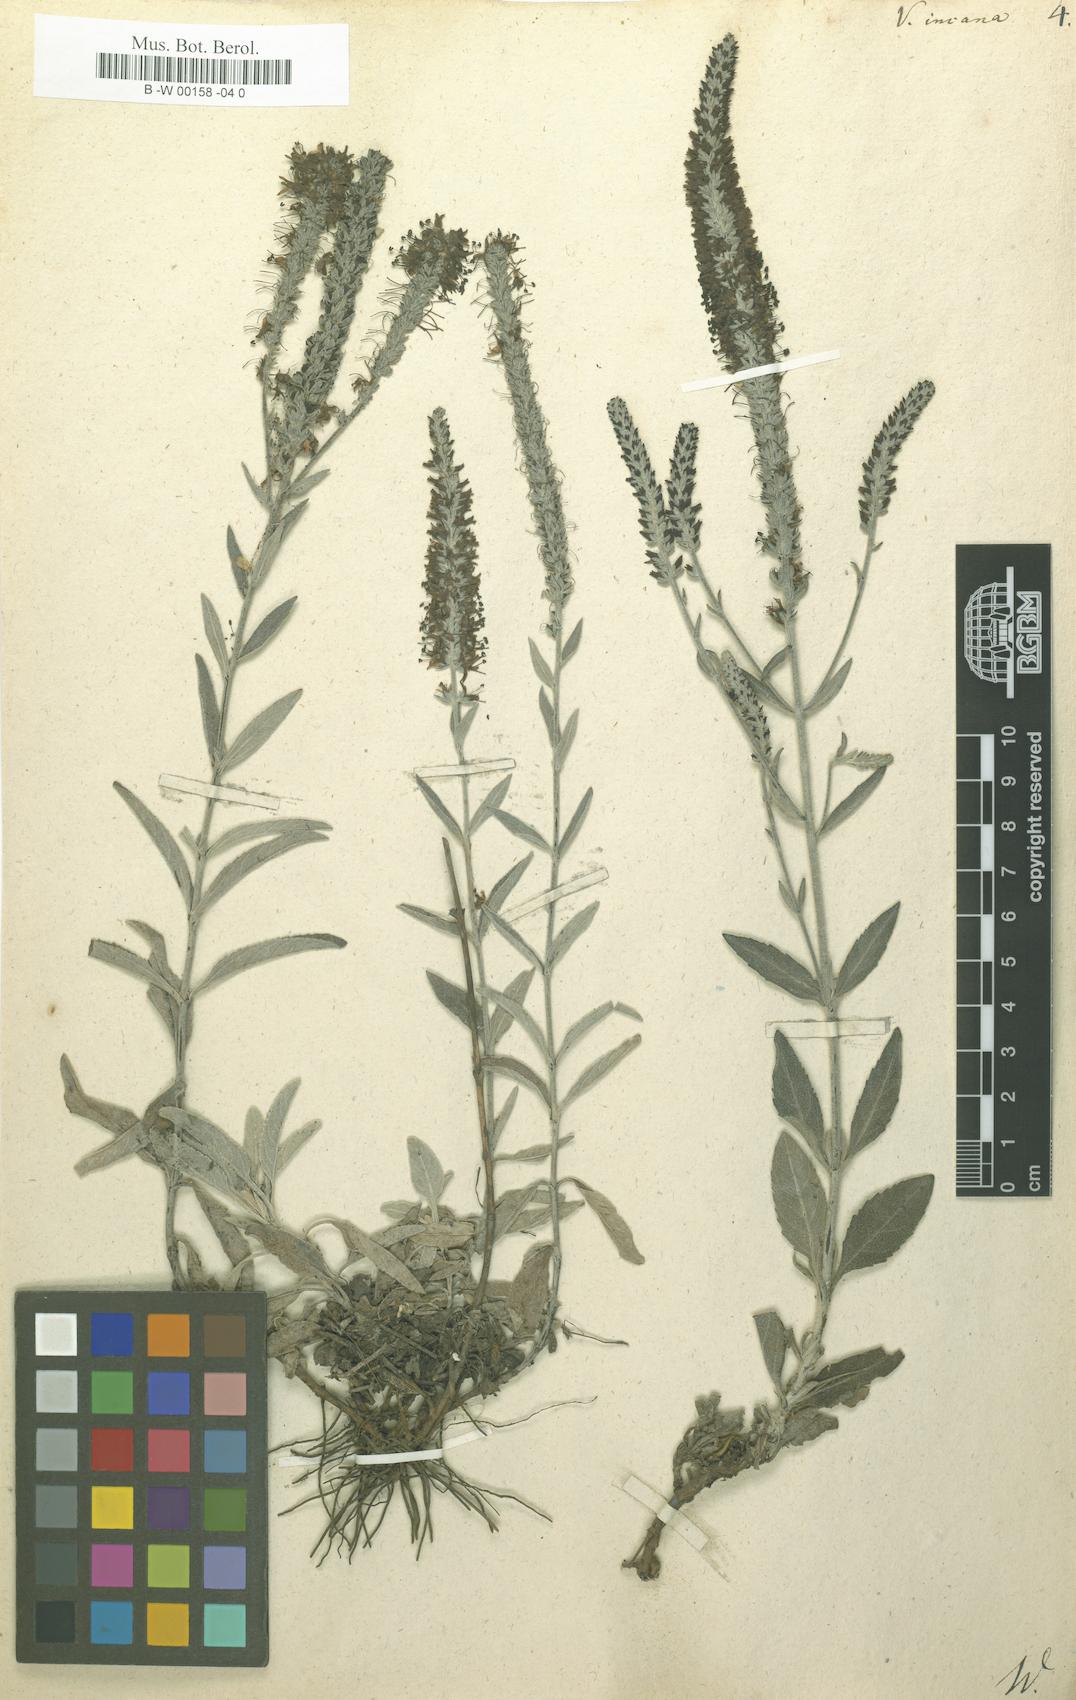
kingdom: Plantae
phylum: Tracheophyta
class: Magnoliopsida
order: Lamiales
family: Plantaginaceae
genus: Veronica
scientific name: Veronica incana
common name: Silver speedwell
